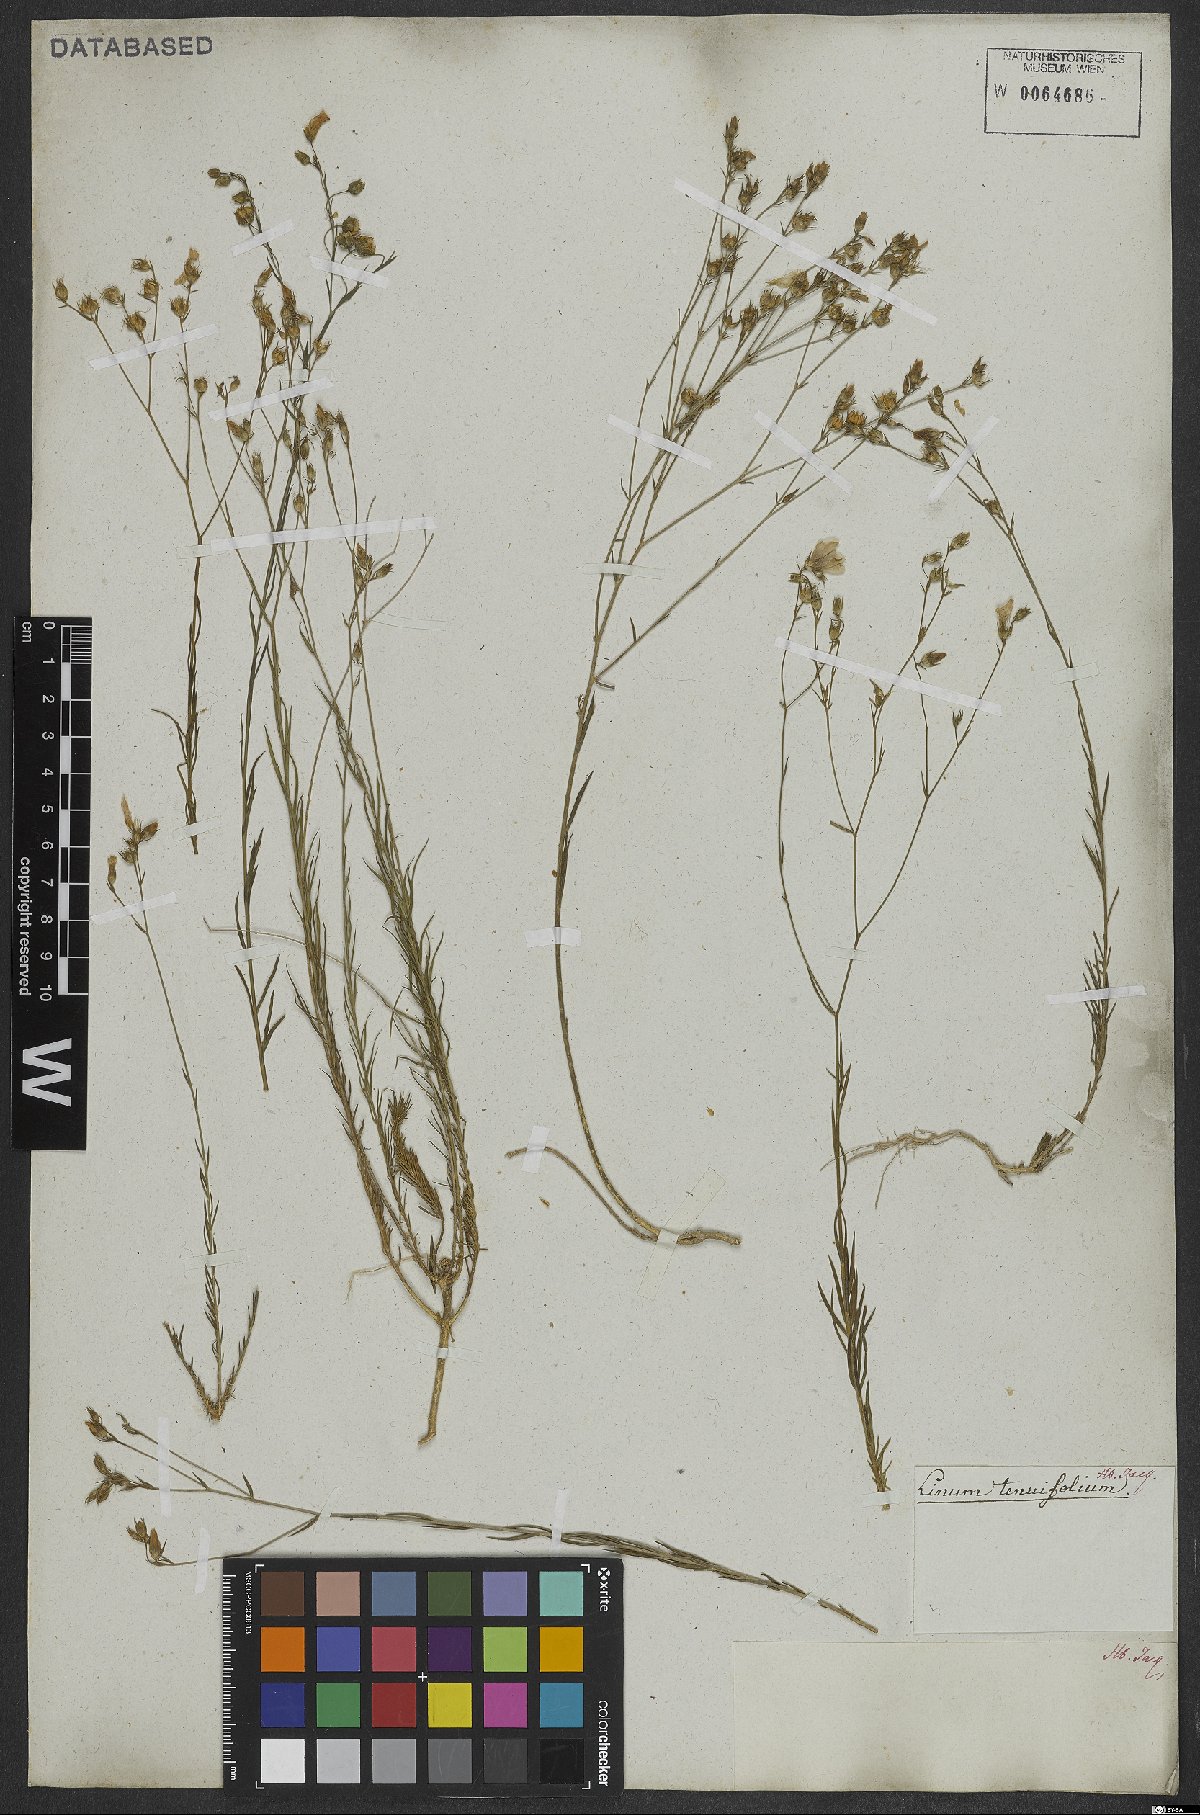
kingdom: Plantae
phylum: Tracheophyta
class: Magnoliopsida
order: Malpighiales
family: Linaceae
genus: Linum
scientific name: Linum tenuifolium
